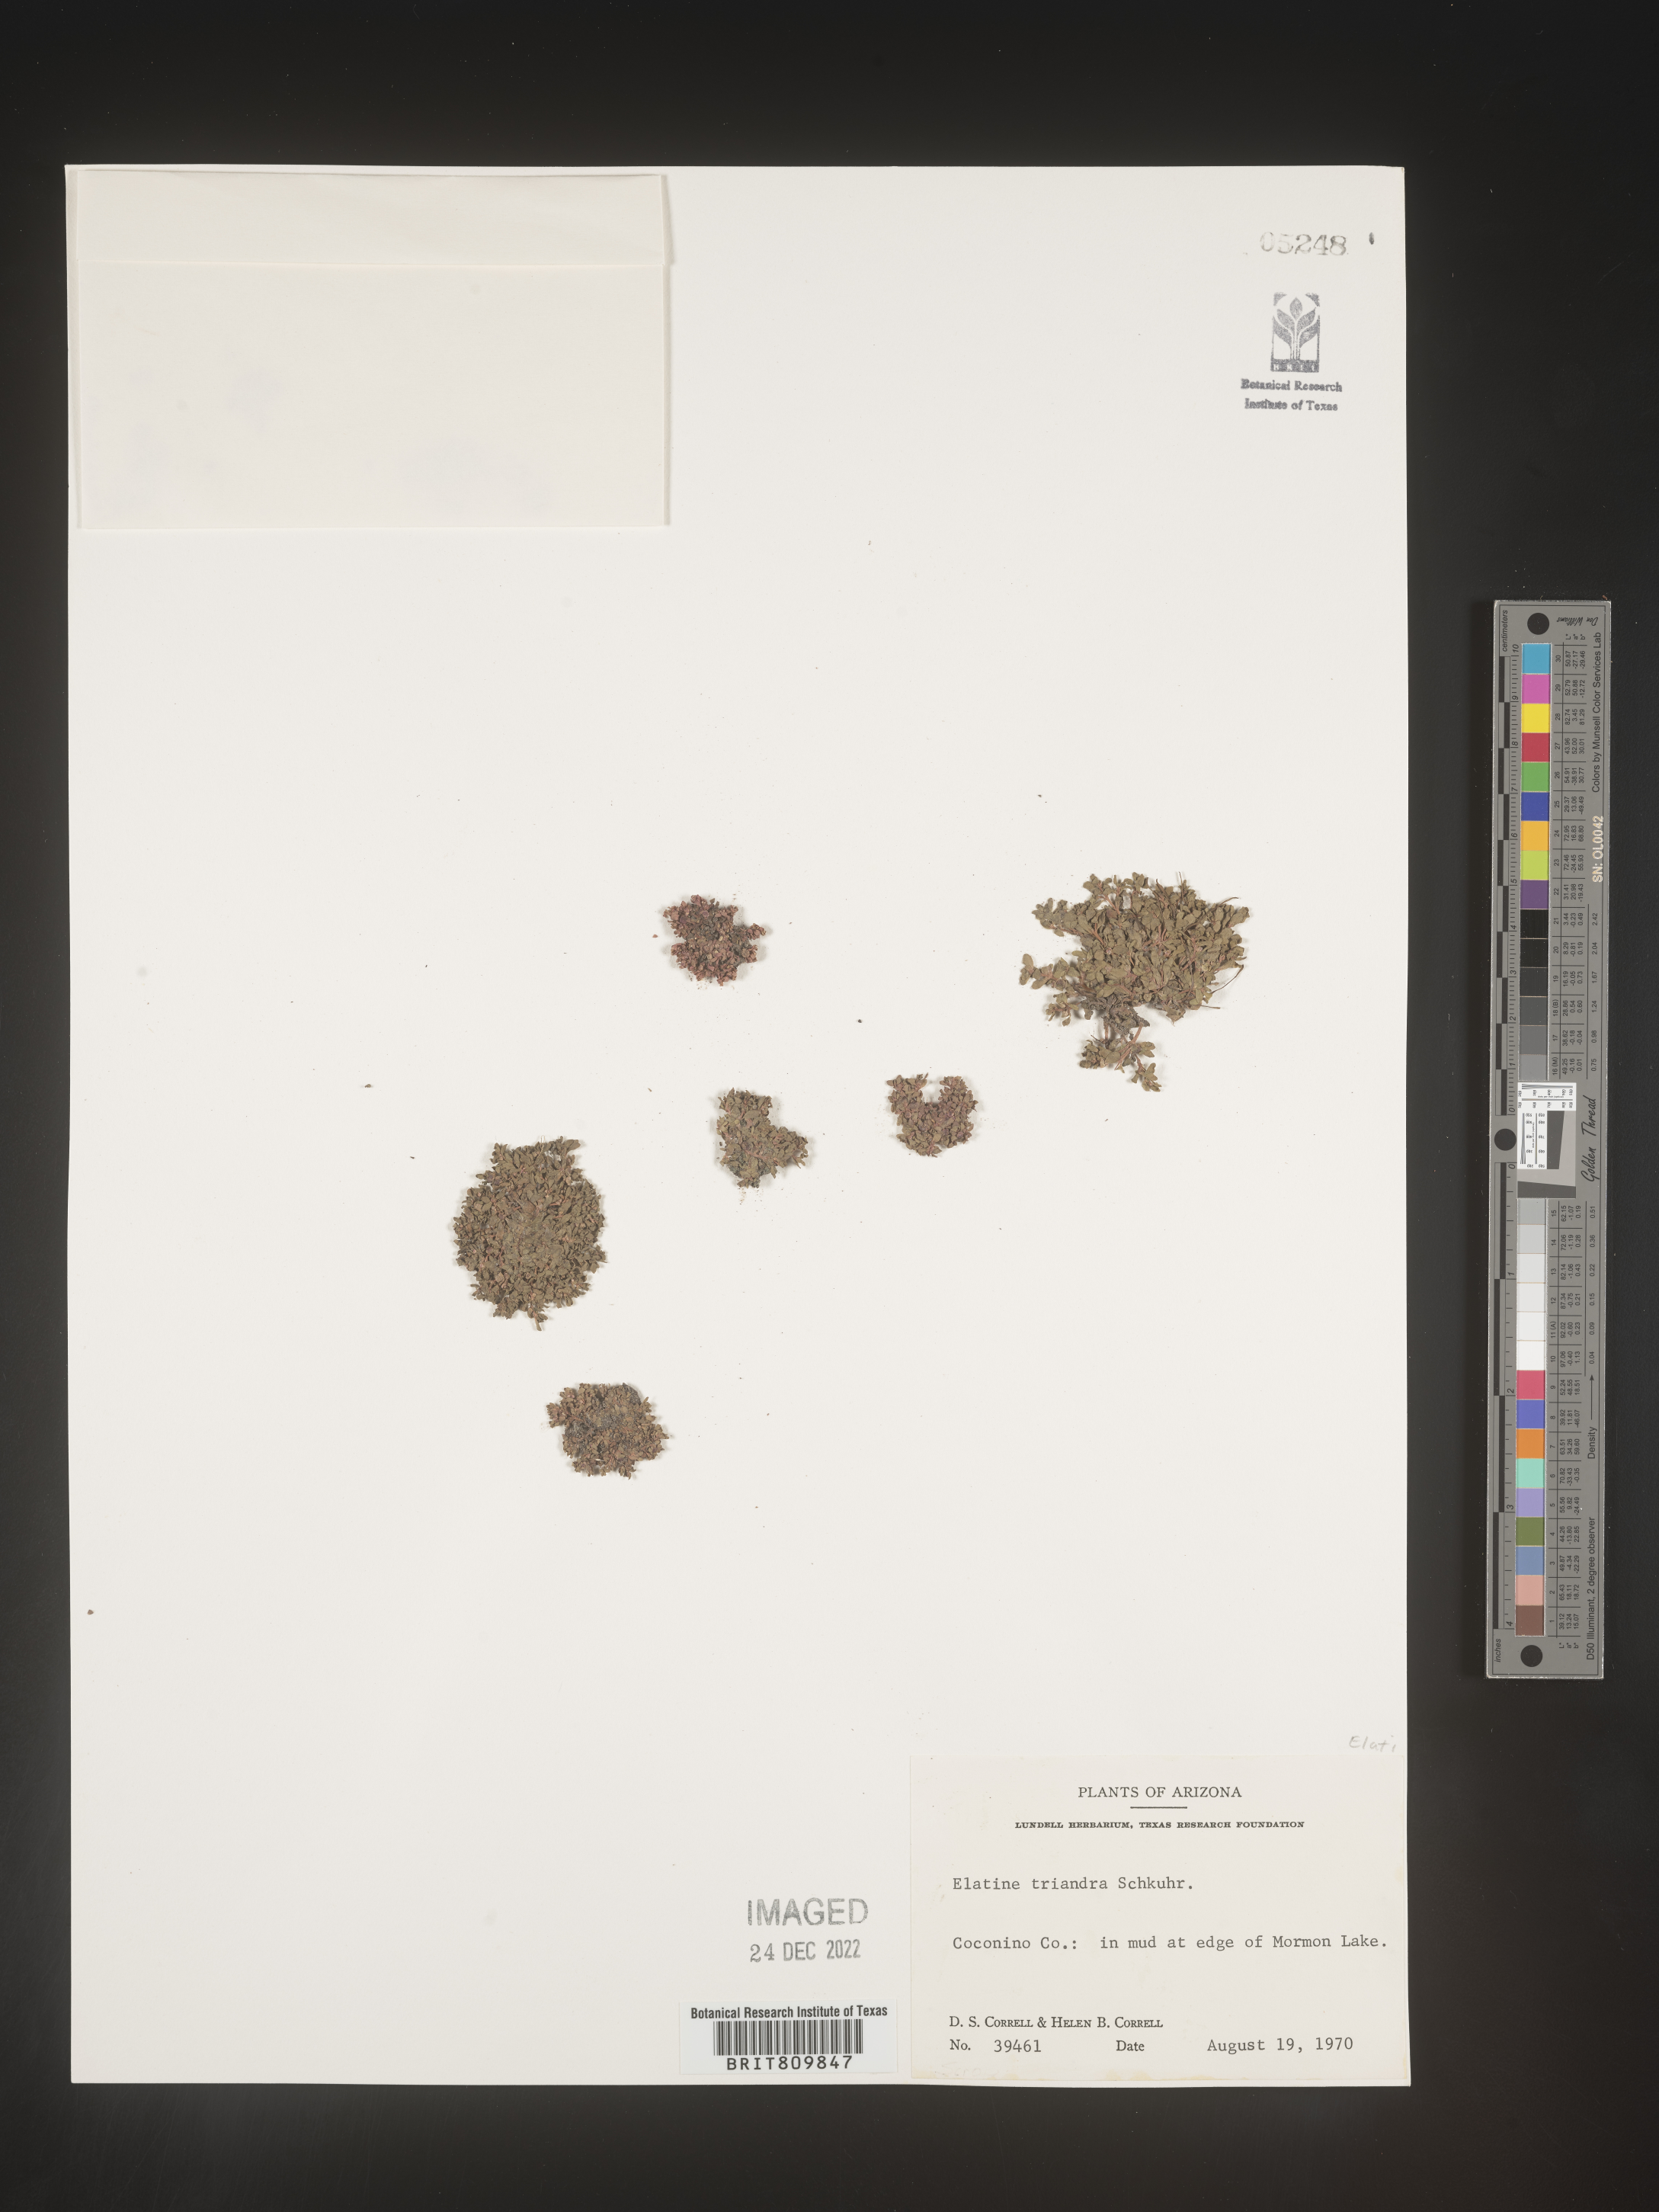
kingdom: Plantae
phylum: Tracheophyta
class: Magnoliopsida
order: Malpighiales
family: Elatinaceae
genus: Elatine
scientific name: Elatine
